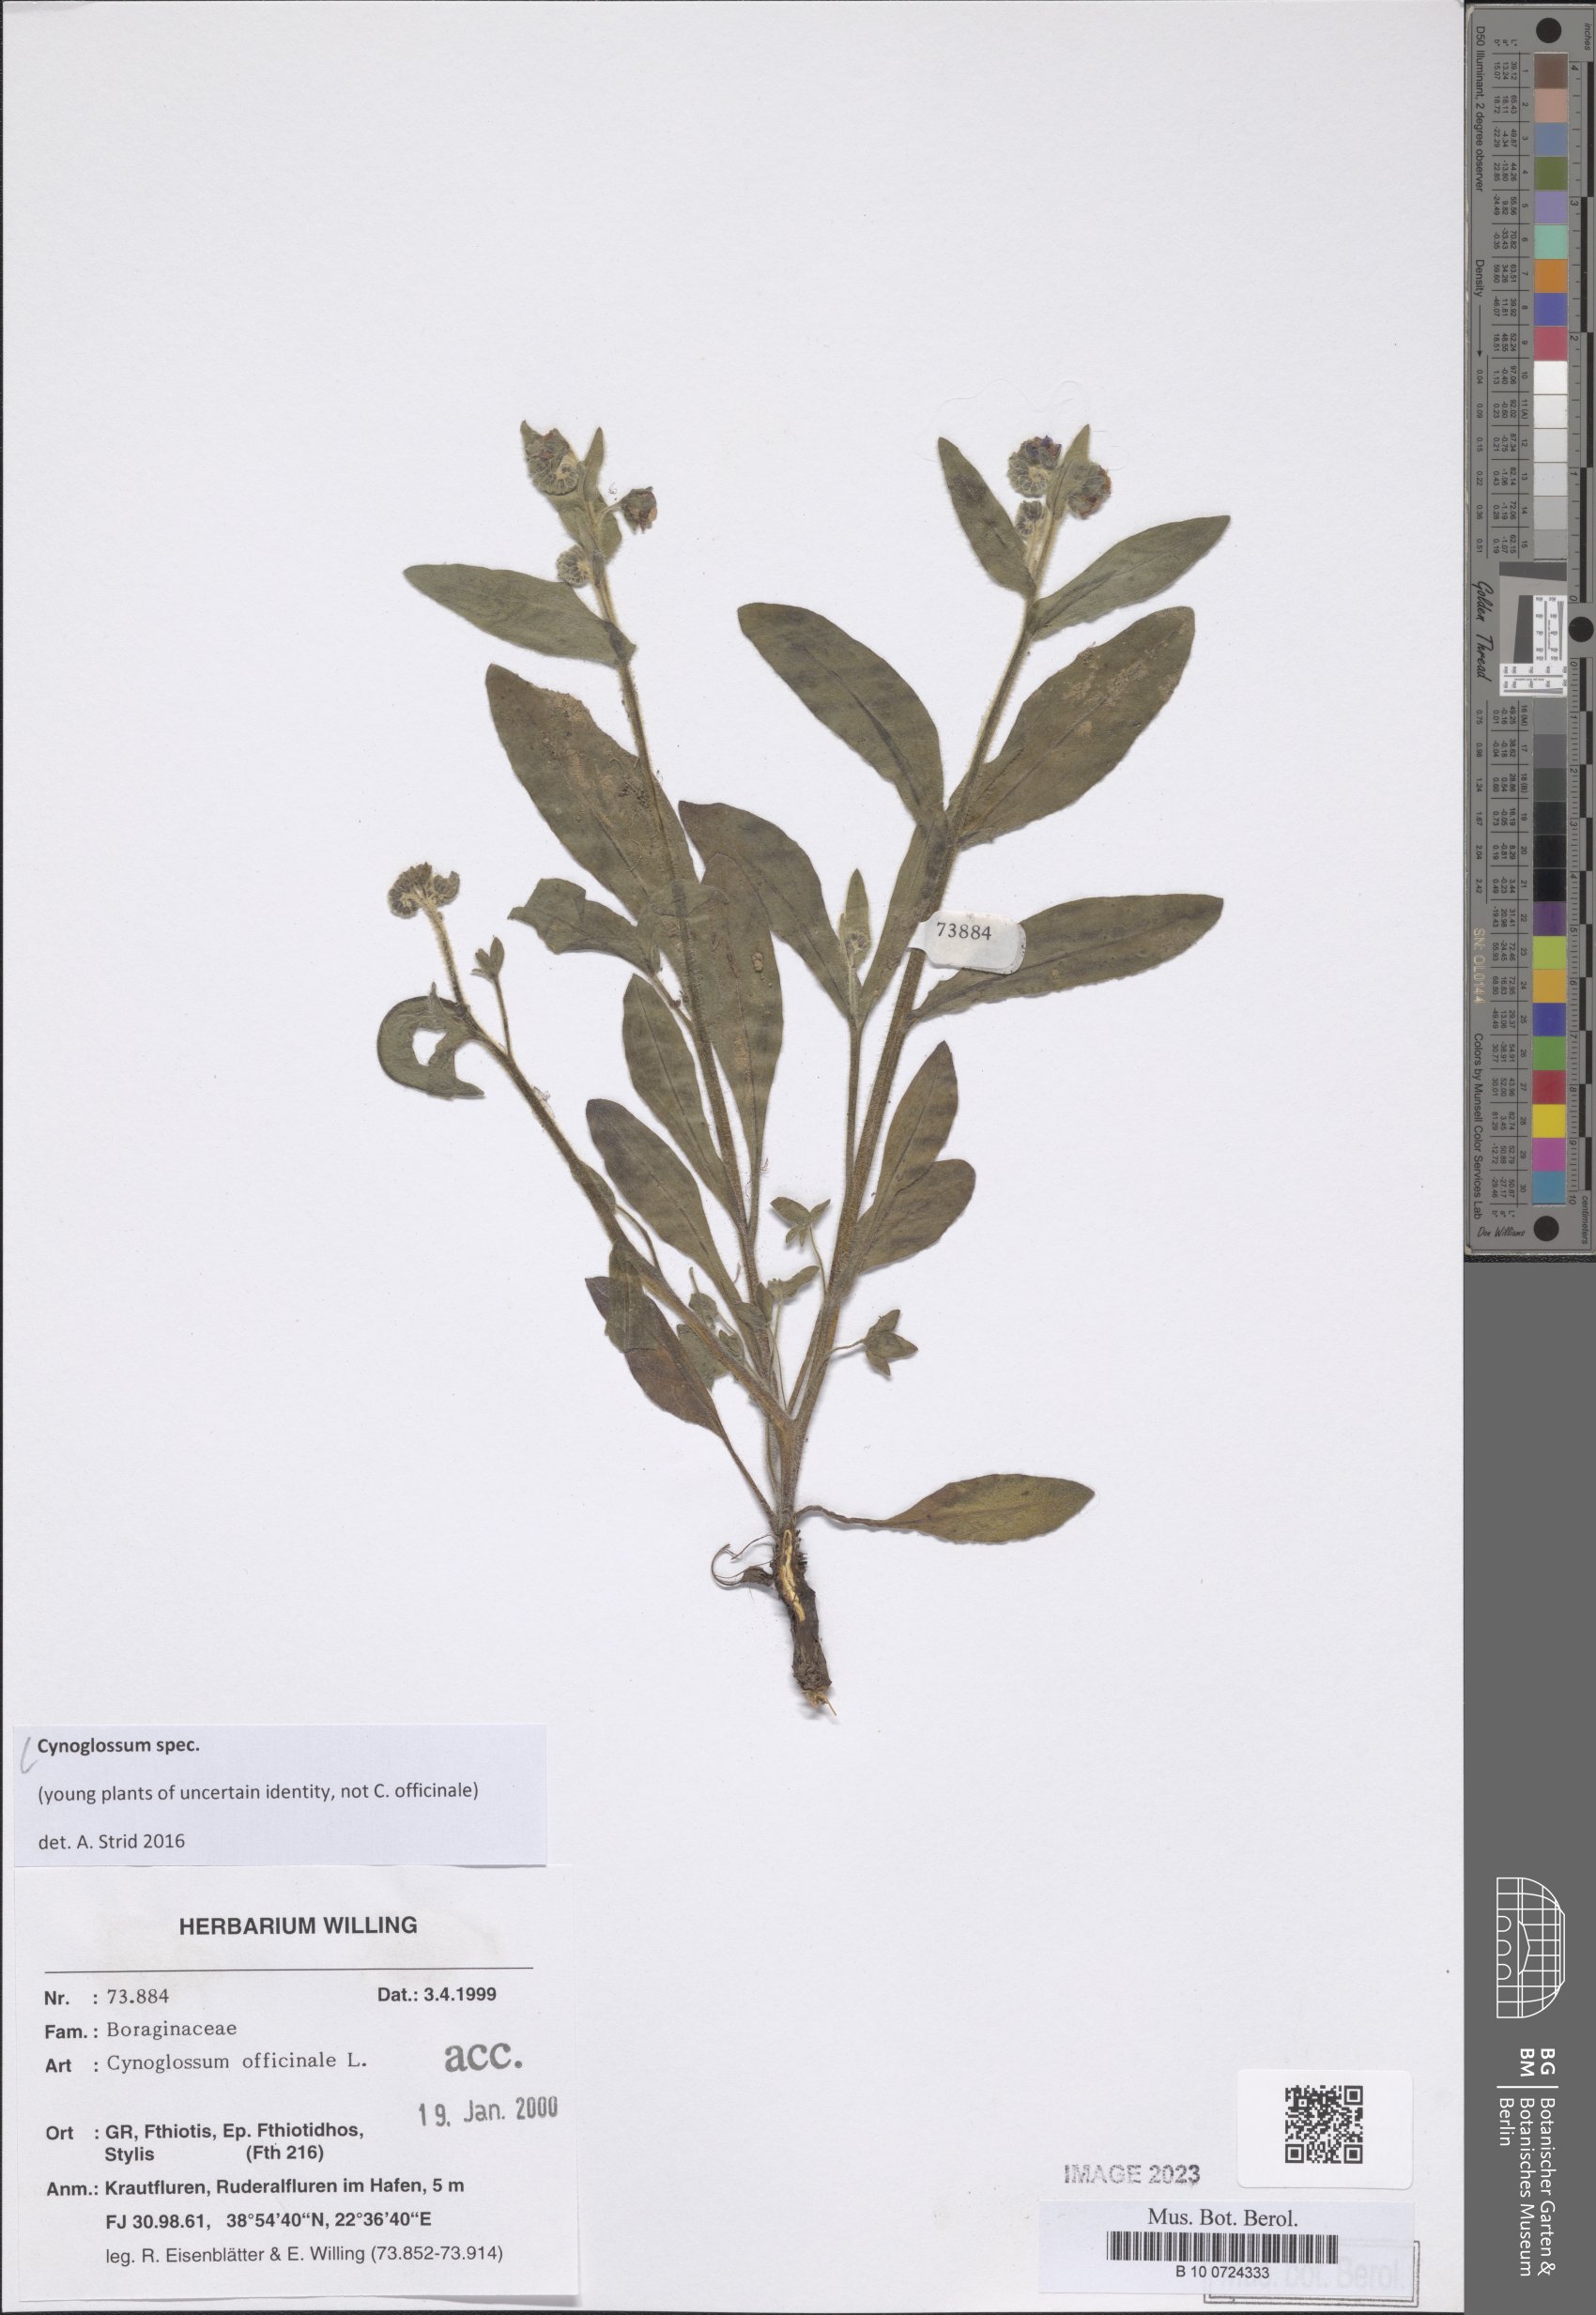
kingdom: Plantae
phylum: Tracheophyta
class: Magnoliopsida
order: Boraginales
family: Boraginaceae
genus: Cynoglossum
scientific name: Cynoglossum
